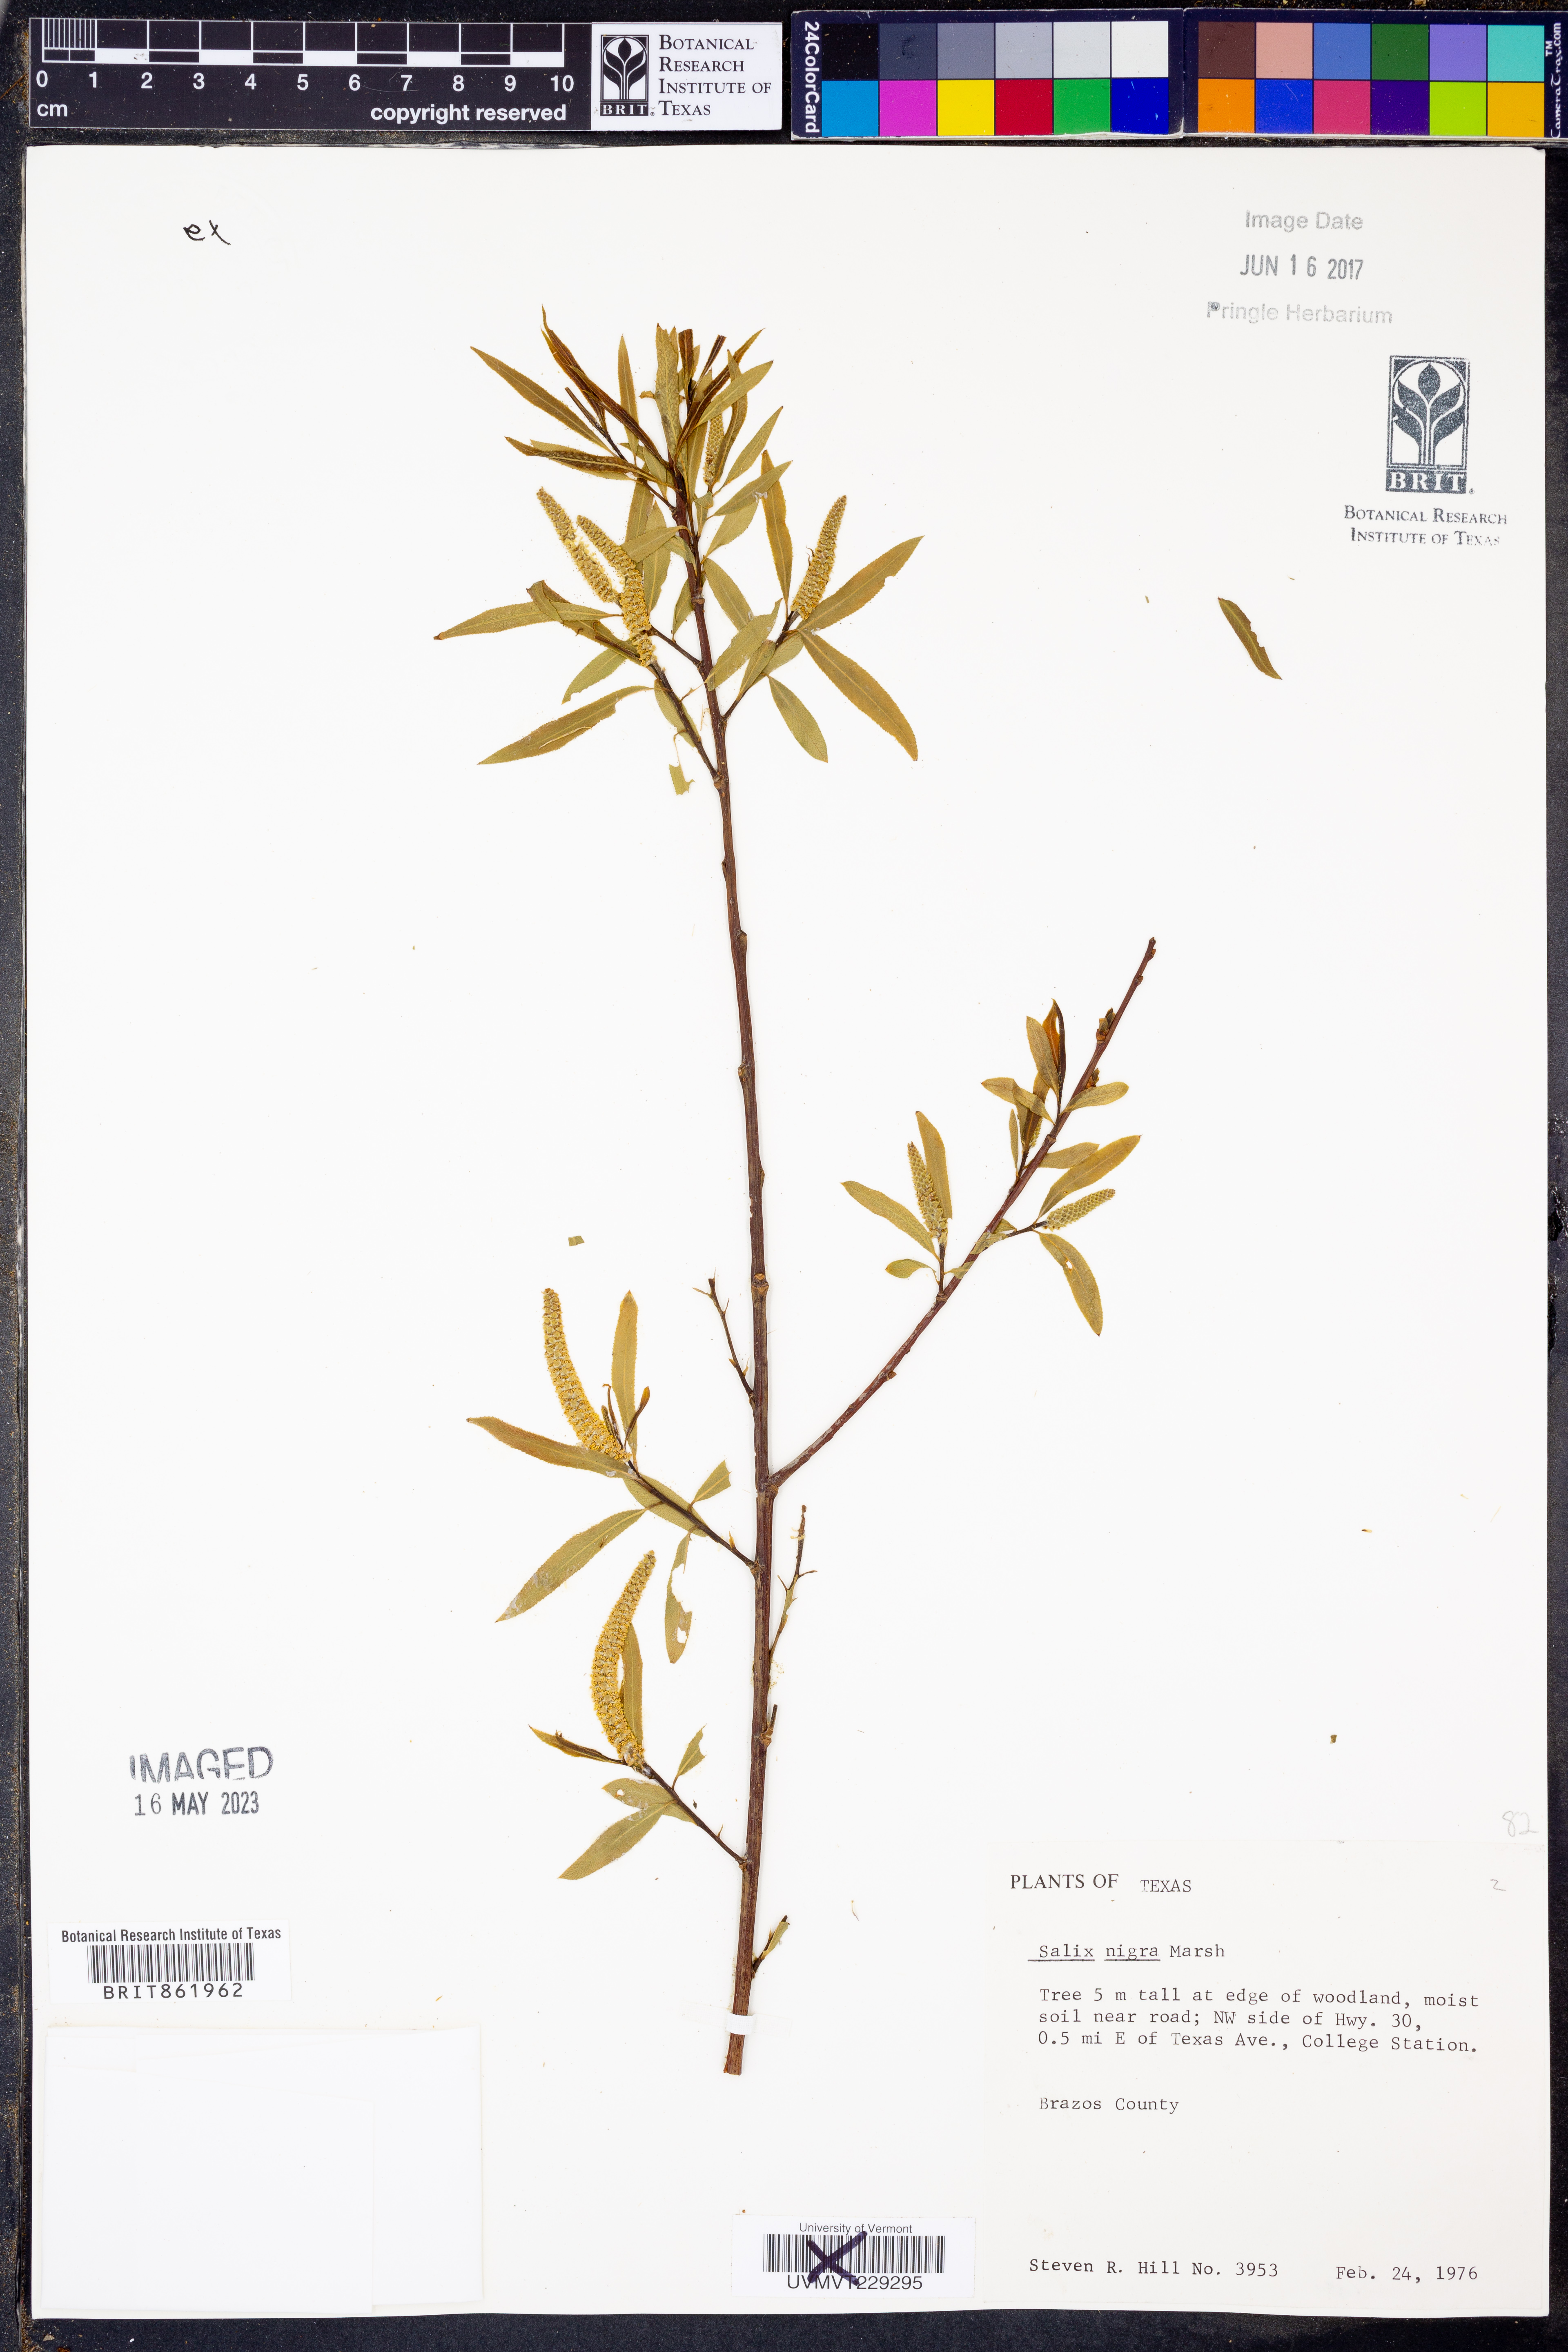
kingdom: Plantae
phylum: Tracheophyta
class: Magnoliopsida
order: Malpighiales
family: Salicaceae
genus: Salix
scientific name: Salix nigra
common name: Black willow
